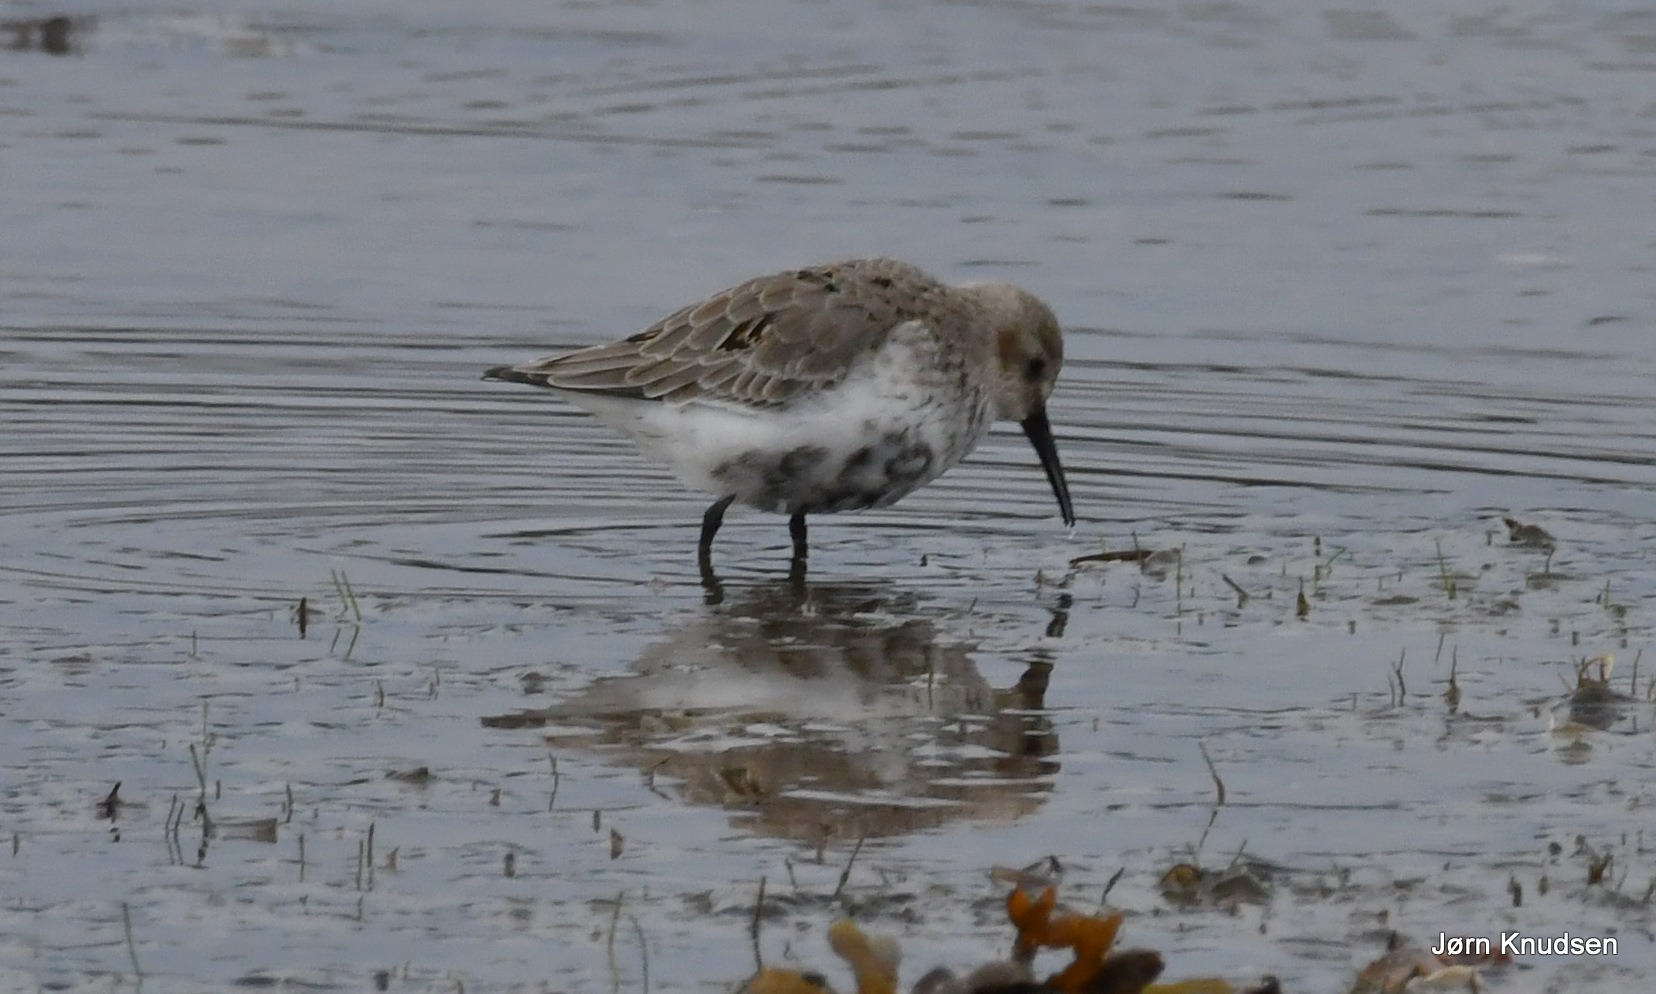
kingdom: Animalia
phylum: Chordata
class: Aves
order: Charadriiformes
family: Scolopacidae
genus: Calidris
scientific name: Calidris alpina
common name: Almindelig ryle
